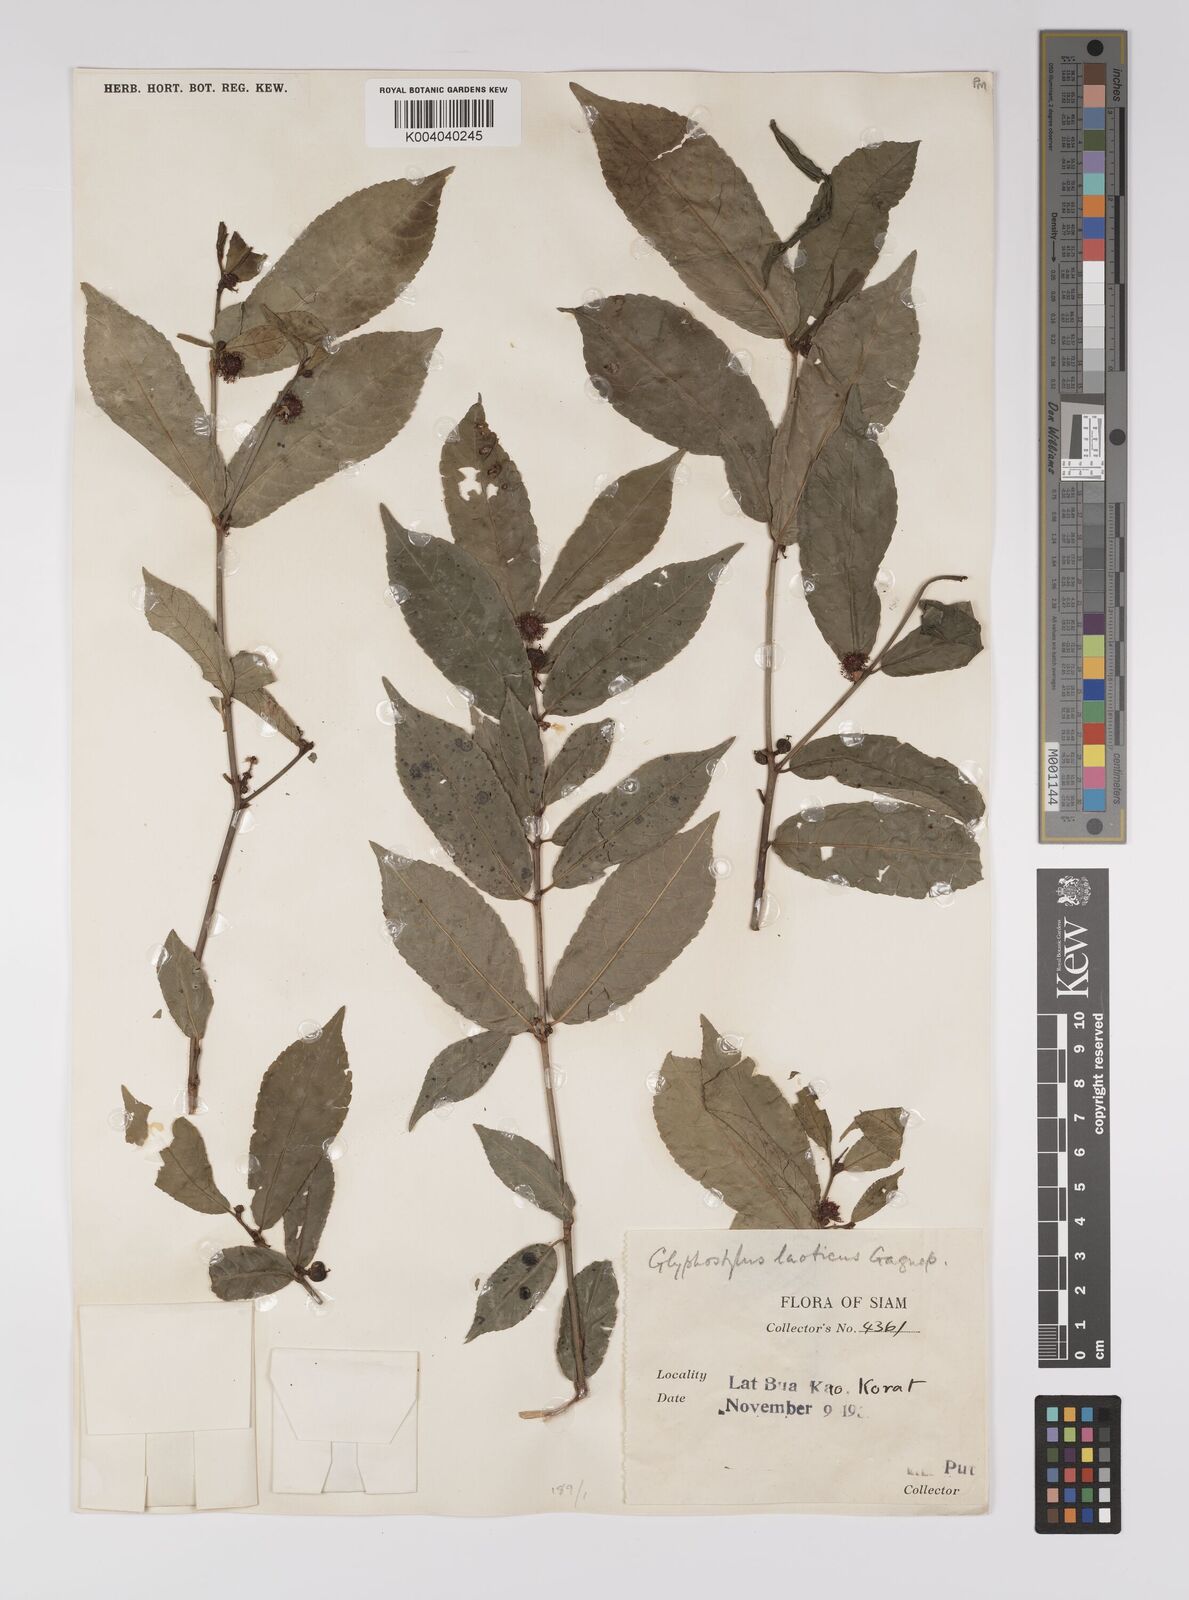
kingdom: Plantae
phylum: Tracheophyta
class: Magnoliopsida
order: Malpighiales
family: Euphorbiaceae
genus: Excoecaria
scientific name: Excoecaria laotica
